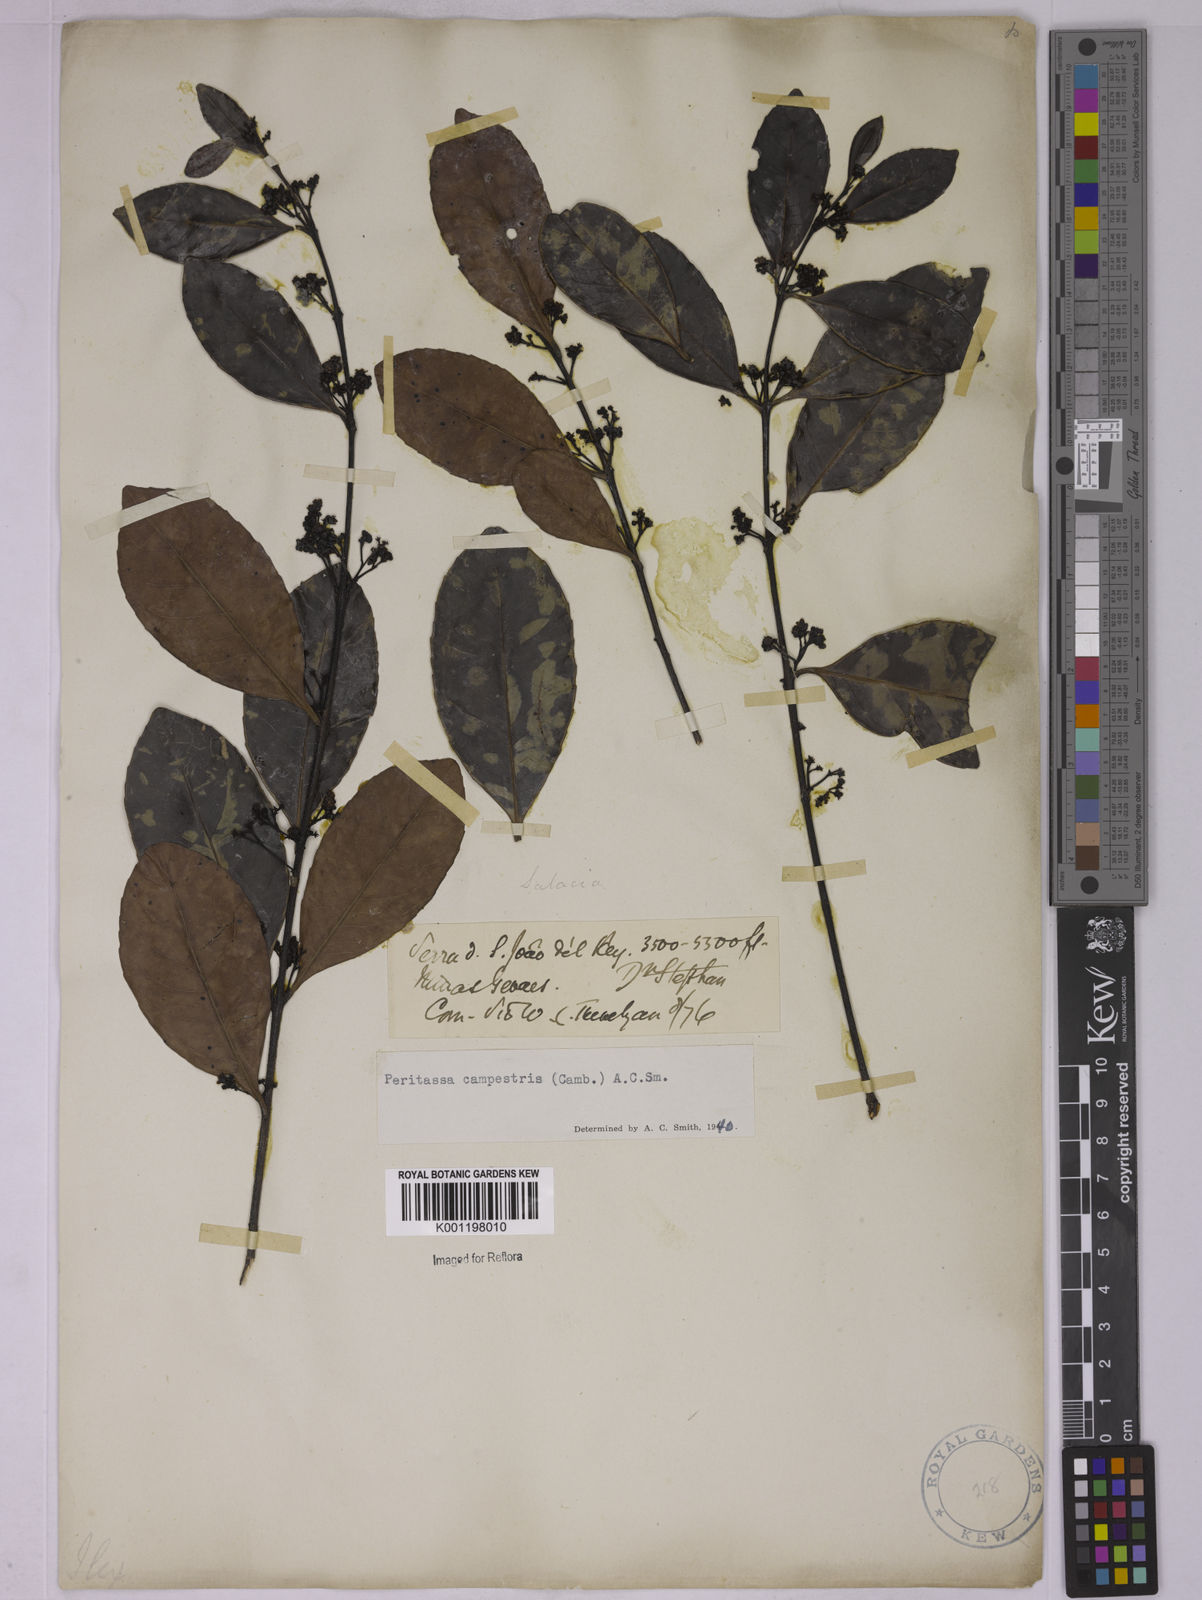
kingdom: Plantae
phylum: Tracheophyta
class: Magnoliopsida
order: Celastrales
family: Celastraceae
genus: Peritassa
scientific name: Peritassa campestris
